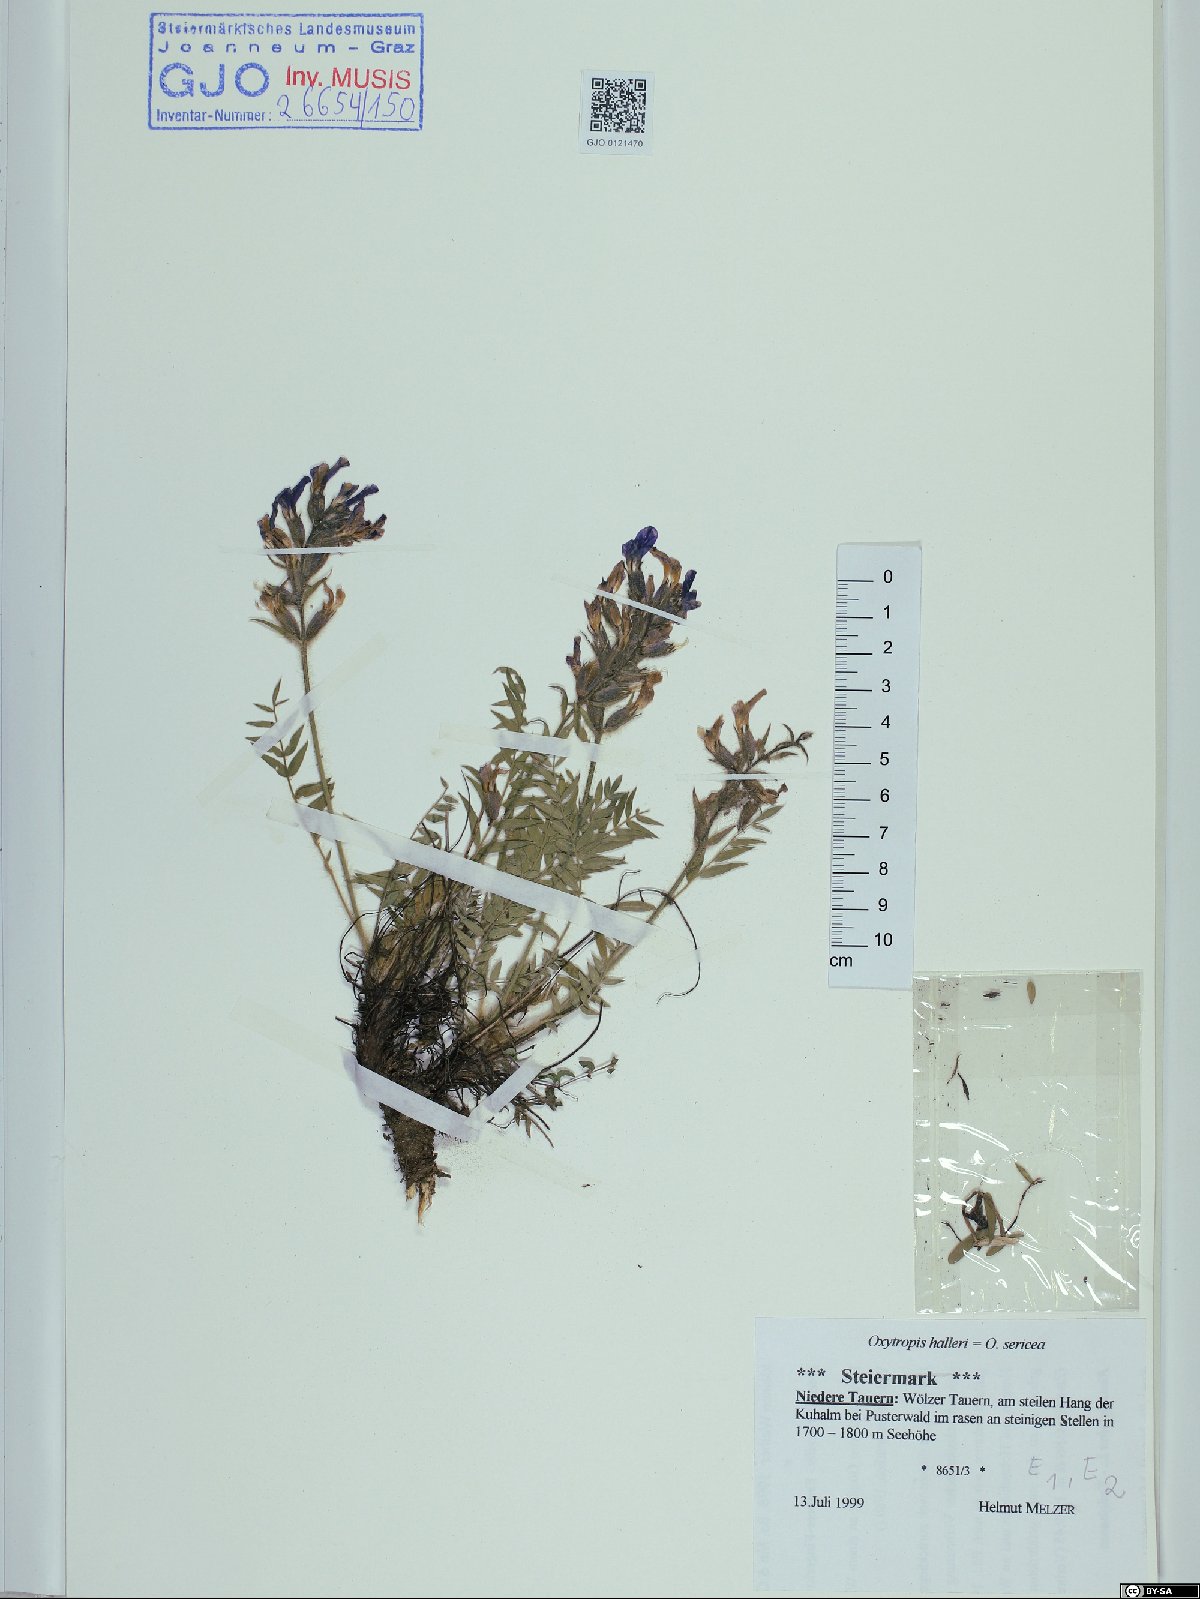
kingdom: Plantae
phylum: Tracheophyta
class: Magnoliopsida
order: Fabales
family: Fabaceae
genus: Oxytropis
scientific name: Oxytropis halleri
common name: Purple oxytropis
